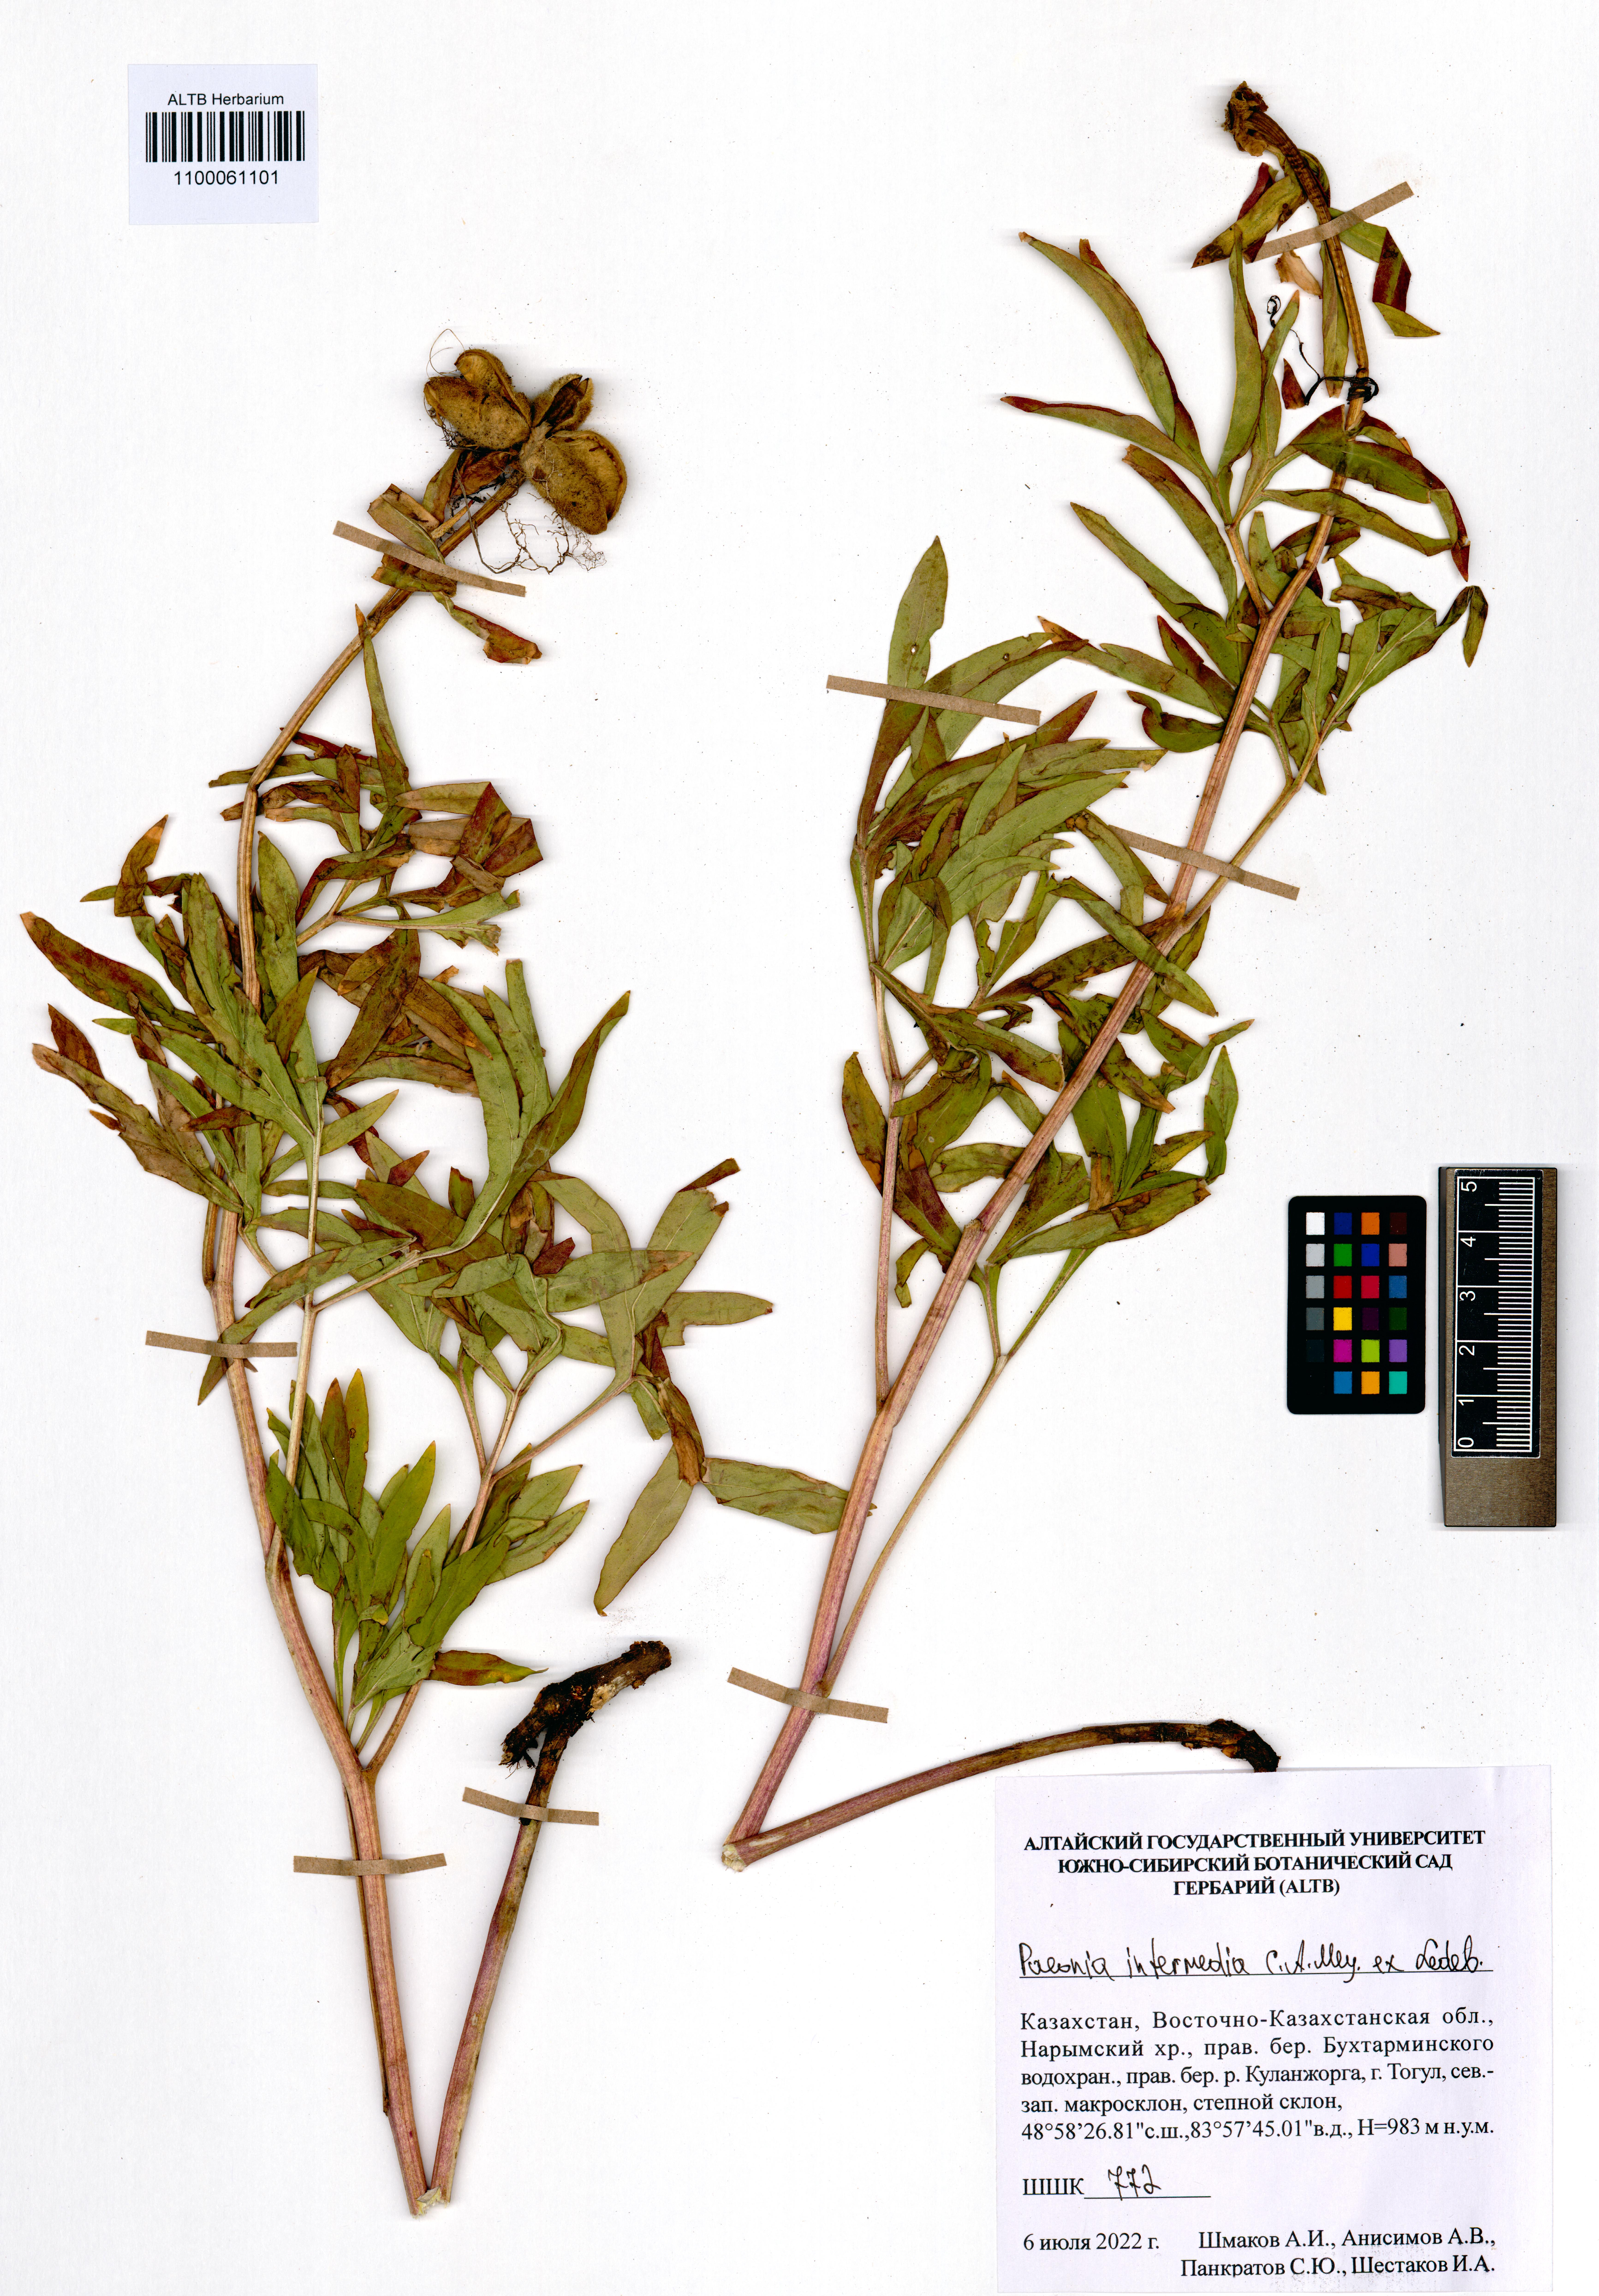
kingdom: Plantae
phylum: Tracheophyta
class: Magnoliopsida
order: Saxifragales
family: Paeoniaceae
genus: Paeonia
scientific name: Paeonia intermedia
